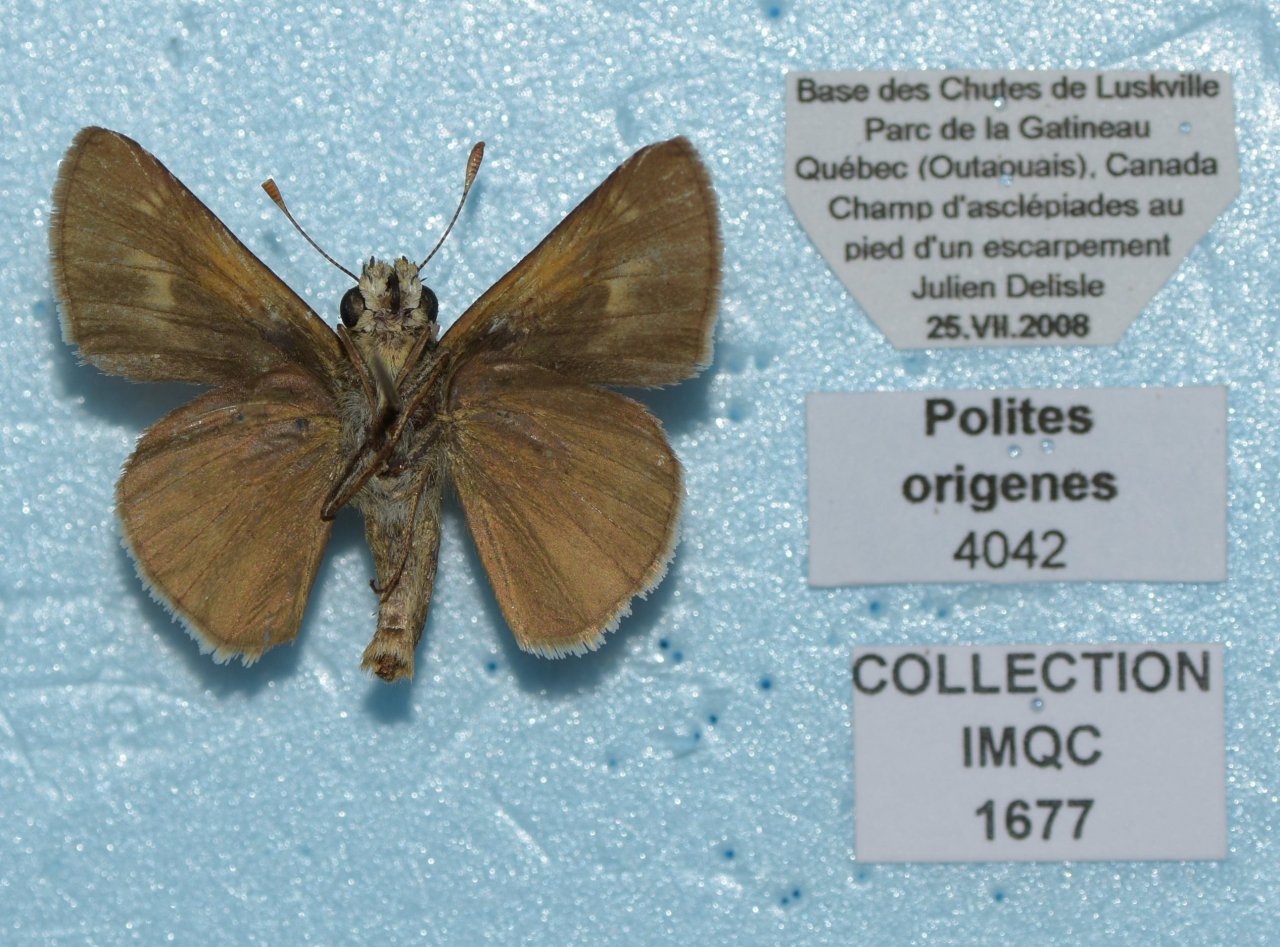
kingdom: Animalia
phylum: Arthropoda
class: Insecta
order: Lepidoptera
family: Hesperiidae
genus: Polites
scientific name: Polites
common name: Crossline Skipper
